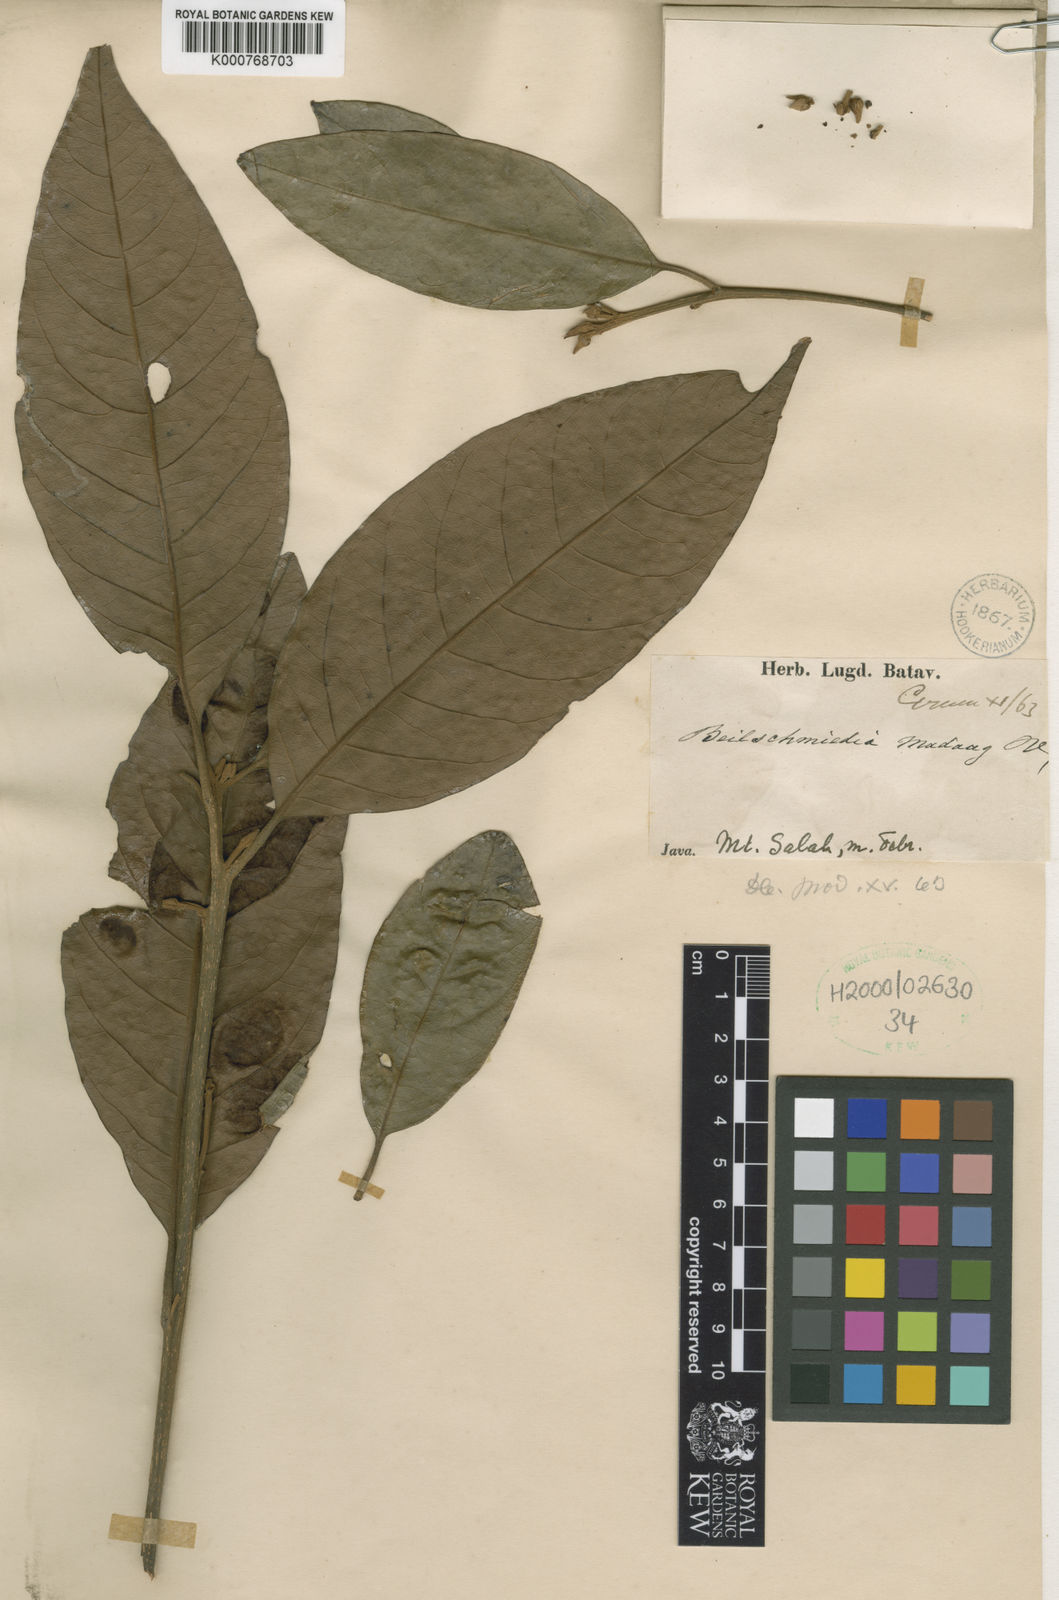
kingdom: Plantae
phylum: Tracheophyta
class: Magnoliopsida
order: Laurales
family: Lauraceae
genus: Beilschmiedia
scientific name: Beilschmiedia madang
